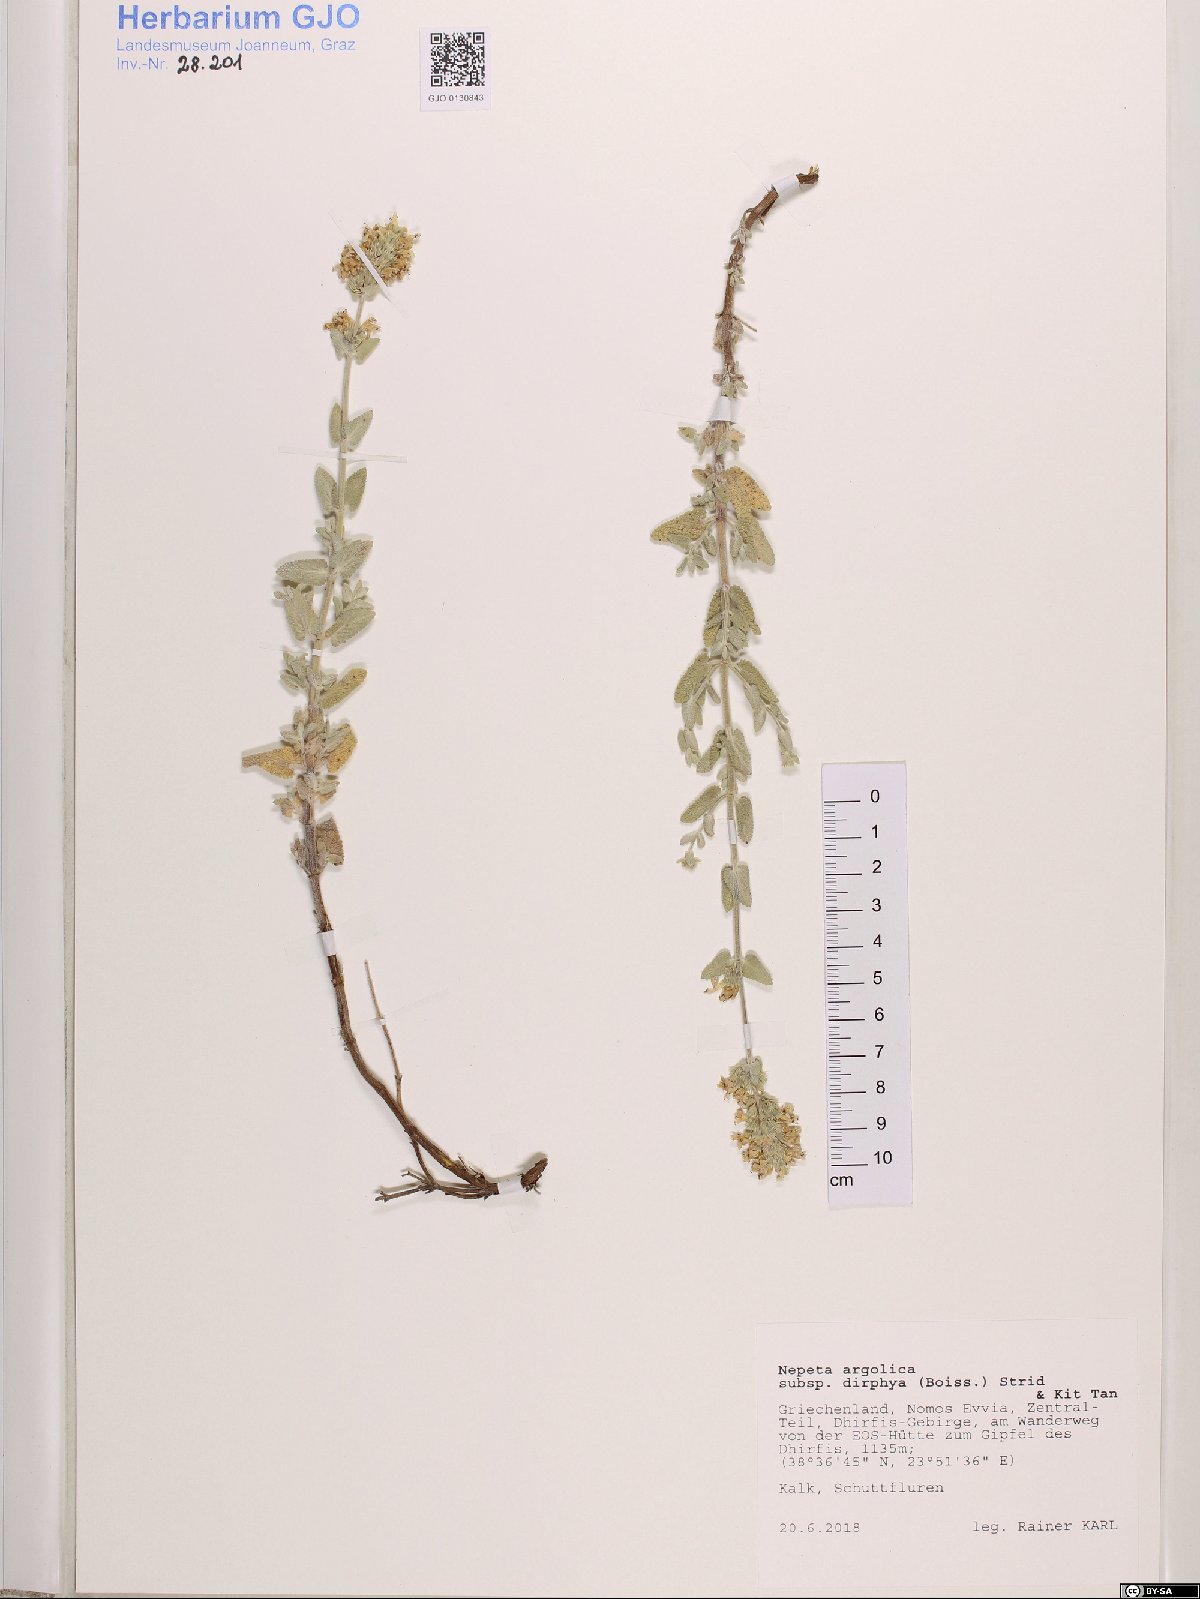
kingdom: Plantae
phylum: Tracheophyta
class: Magnoliopsida
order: Lamiales
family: Lamiaceae
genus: Nepeta
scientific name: Nepeta argolica
